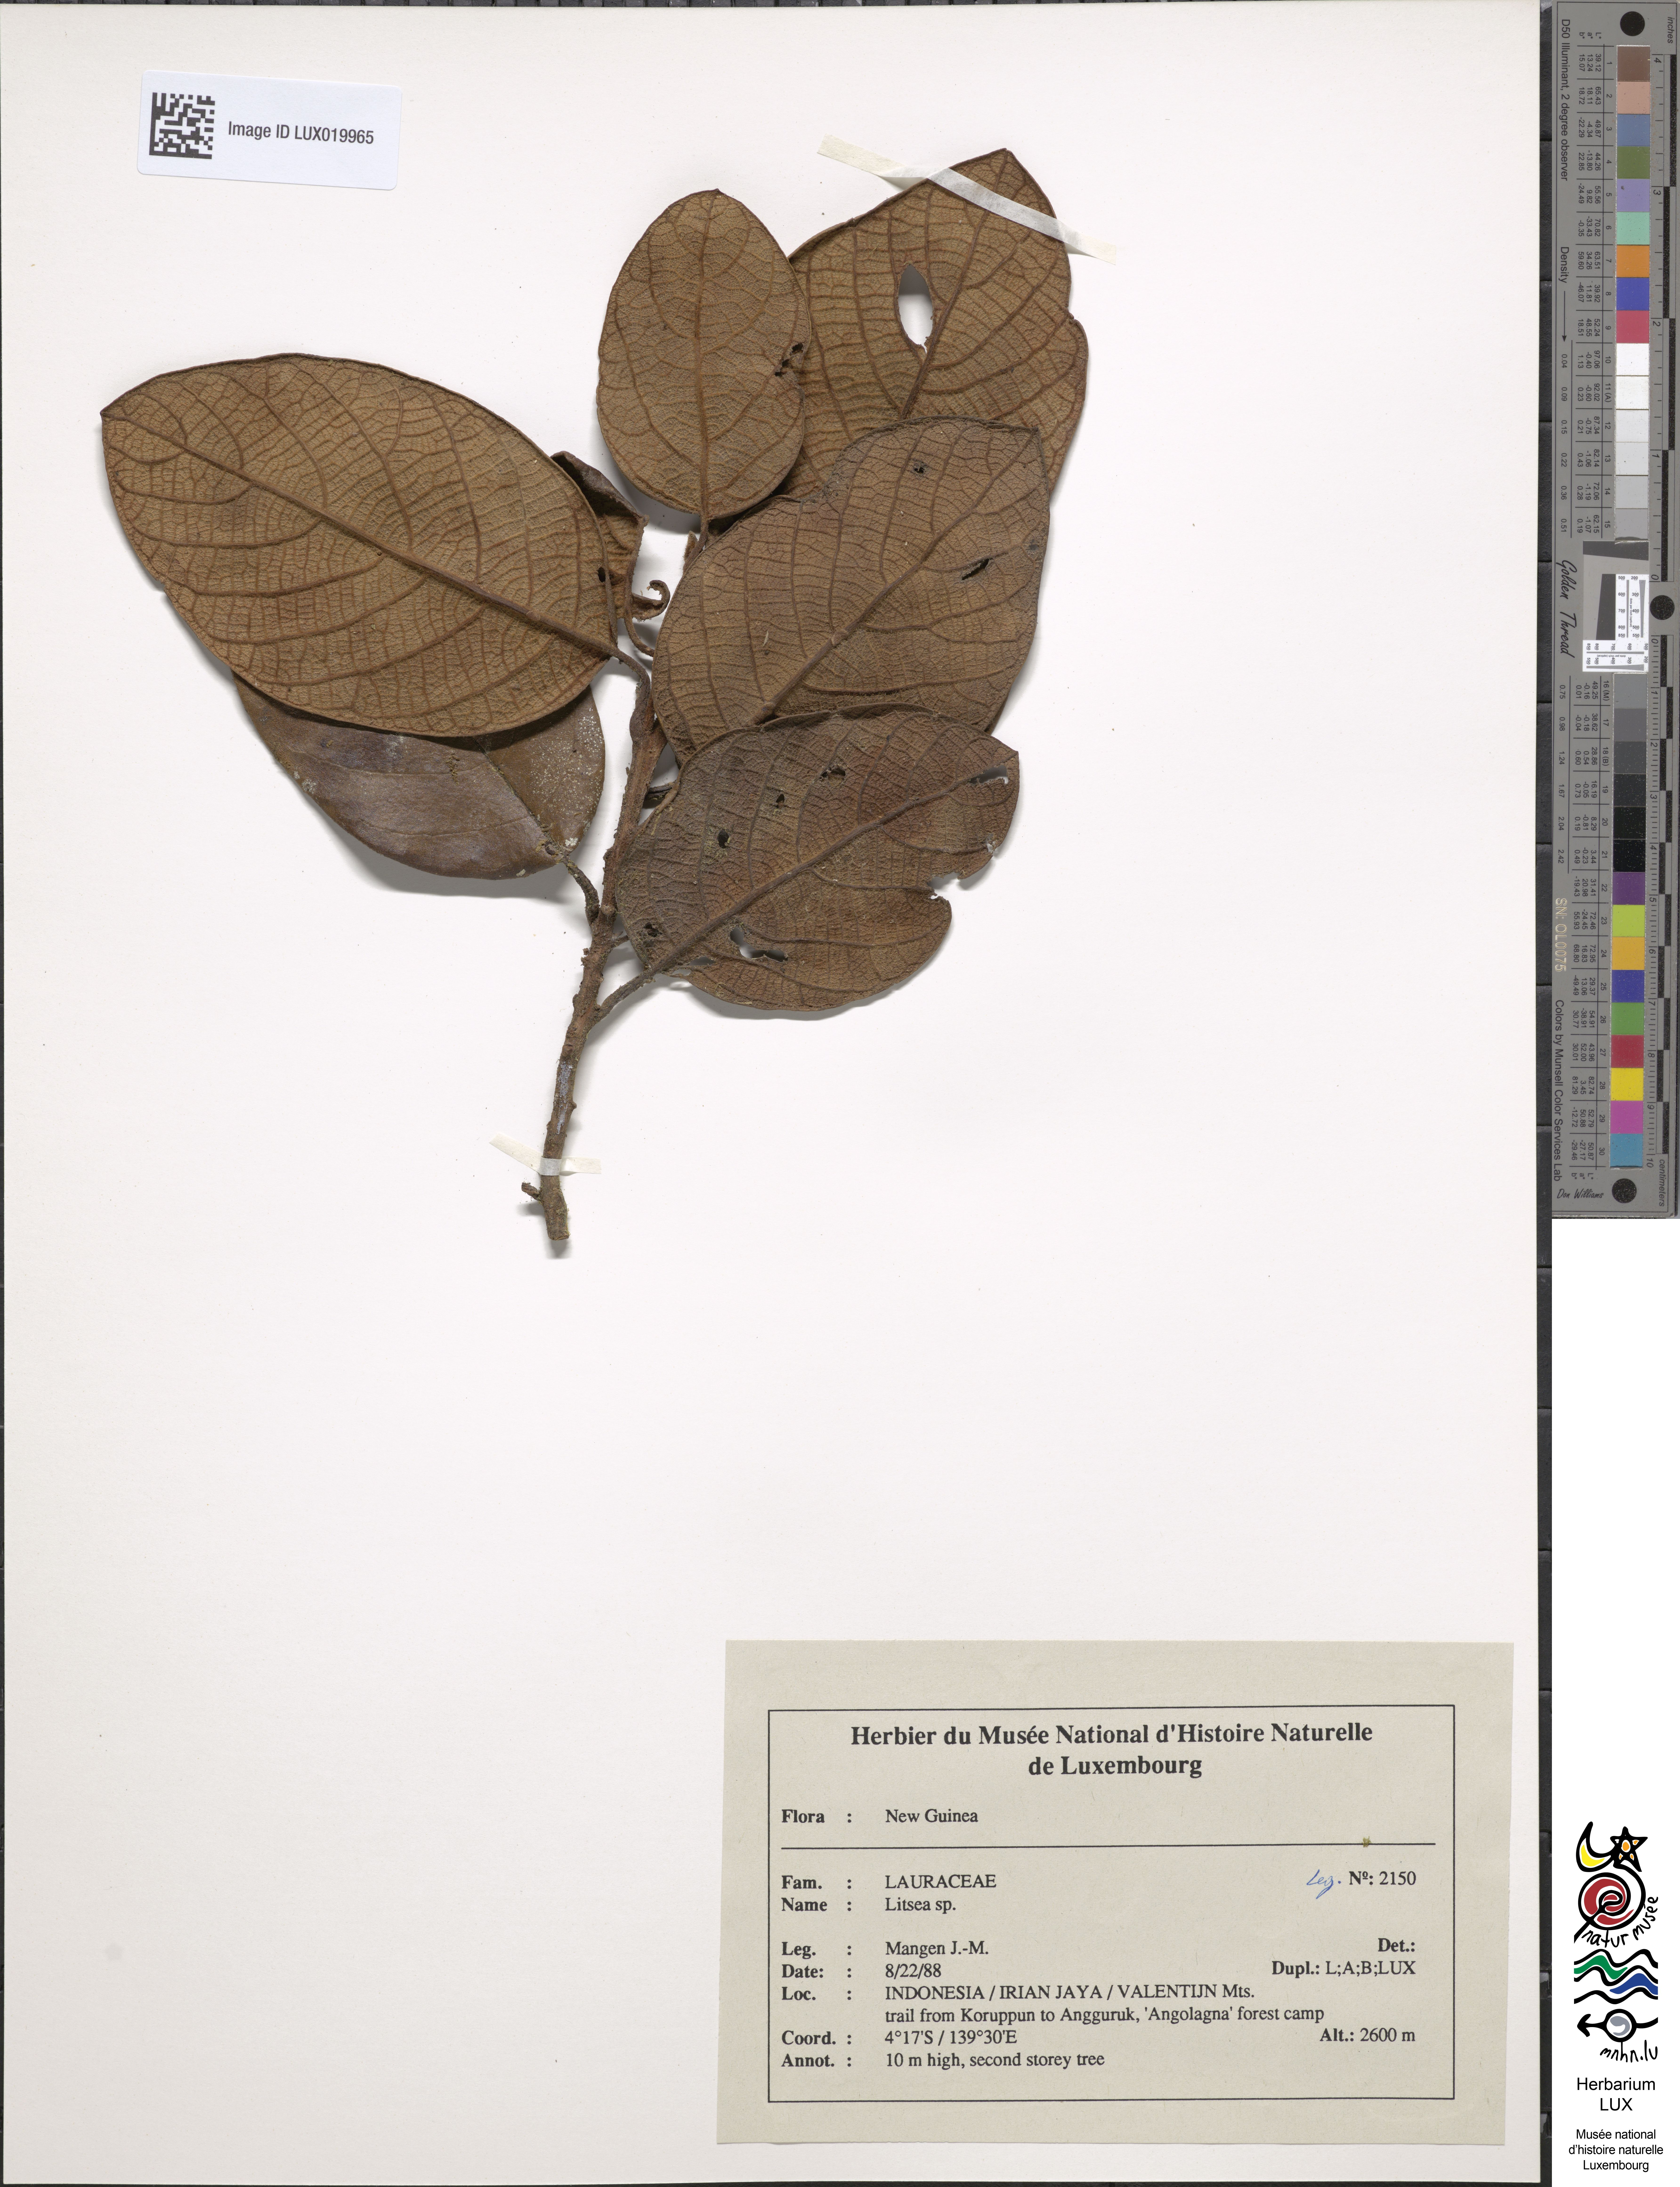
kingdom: Plantae
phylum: Tracheophyta
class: Magnoliopsida
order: Laurales
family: Lauraceae
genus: Litsea
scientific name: Litsea
